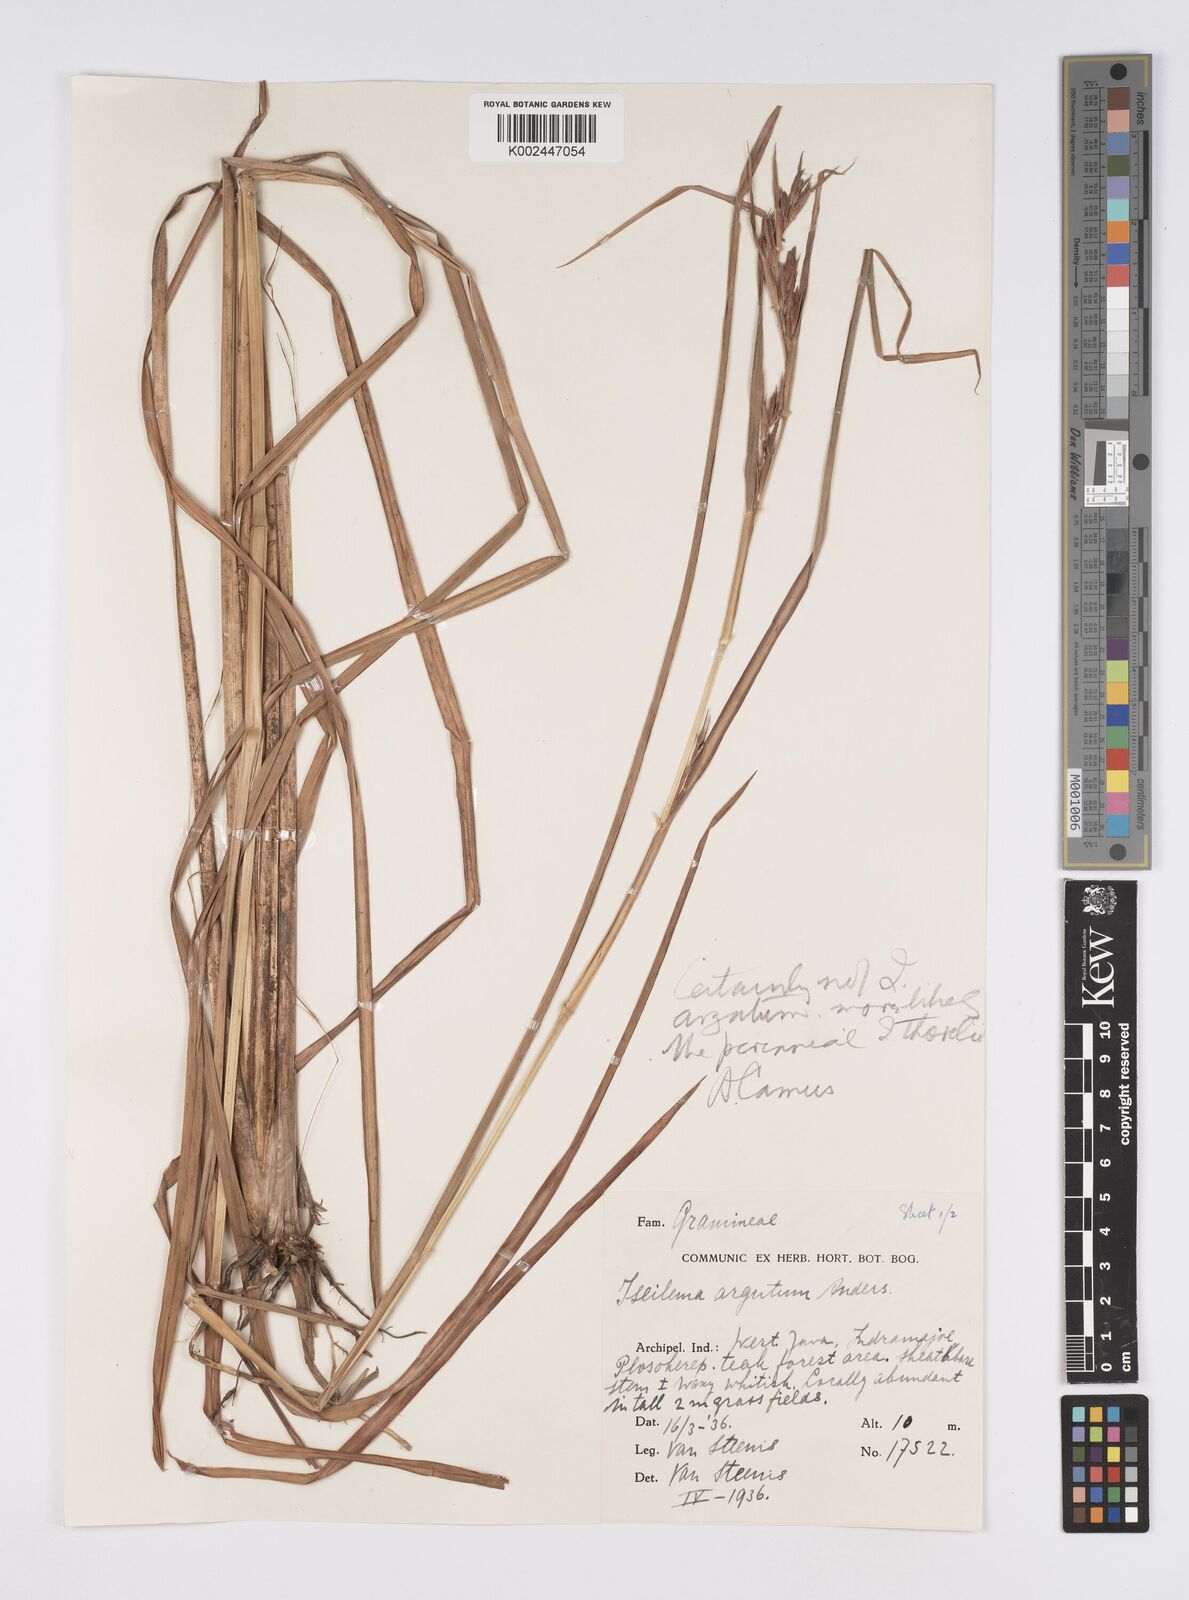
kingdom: Plantae
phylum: Tracheophyta
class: Liliopsida
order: Poales
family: Poaceae
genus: Iseilema
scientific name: Iseilema thorelii
